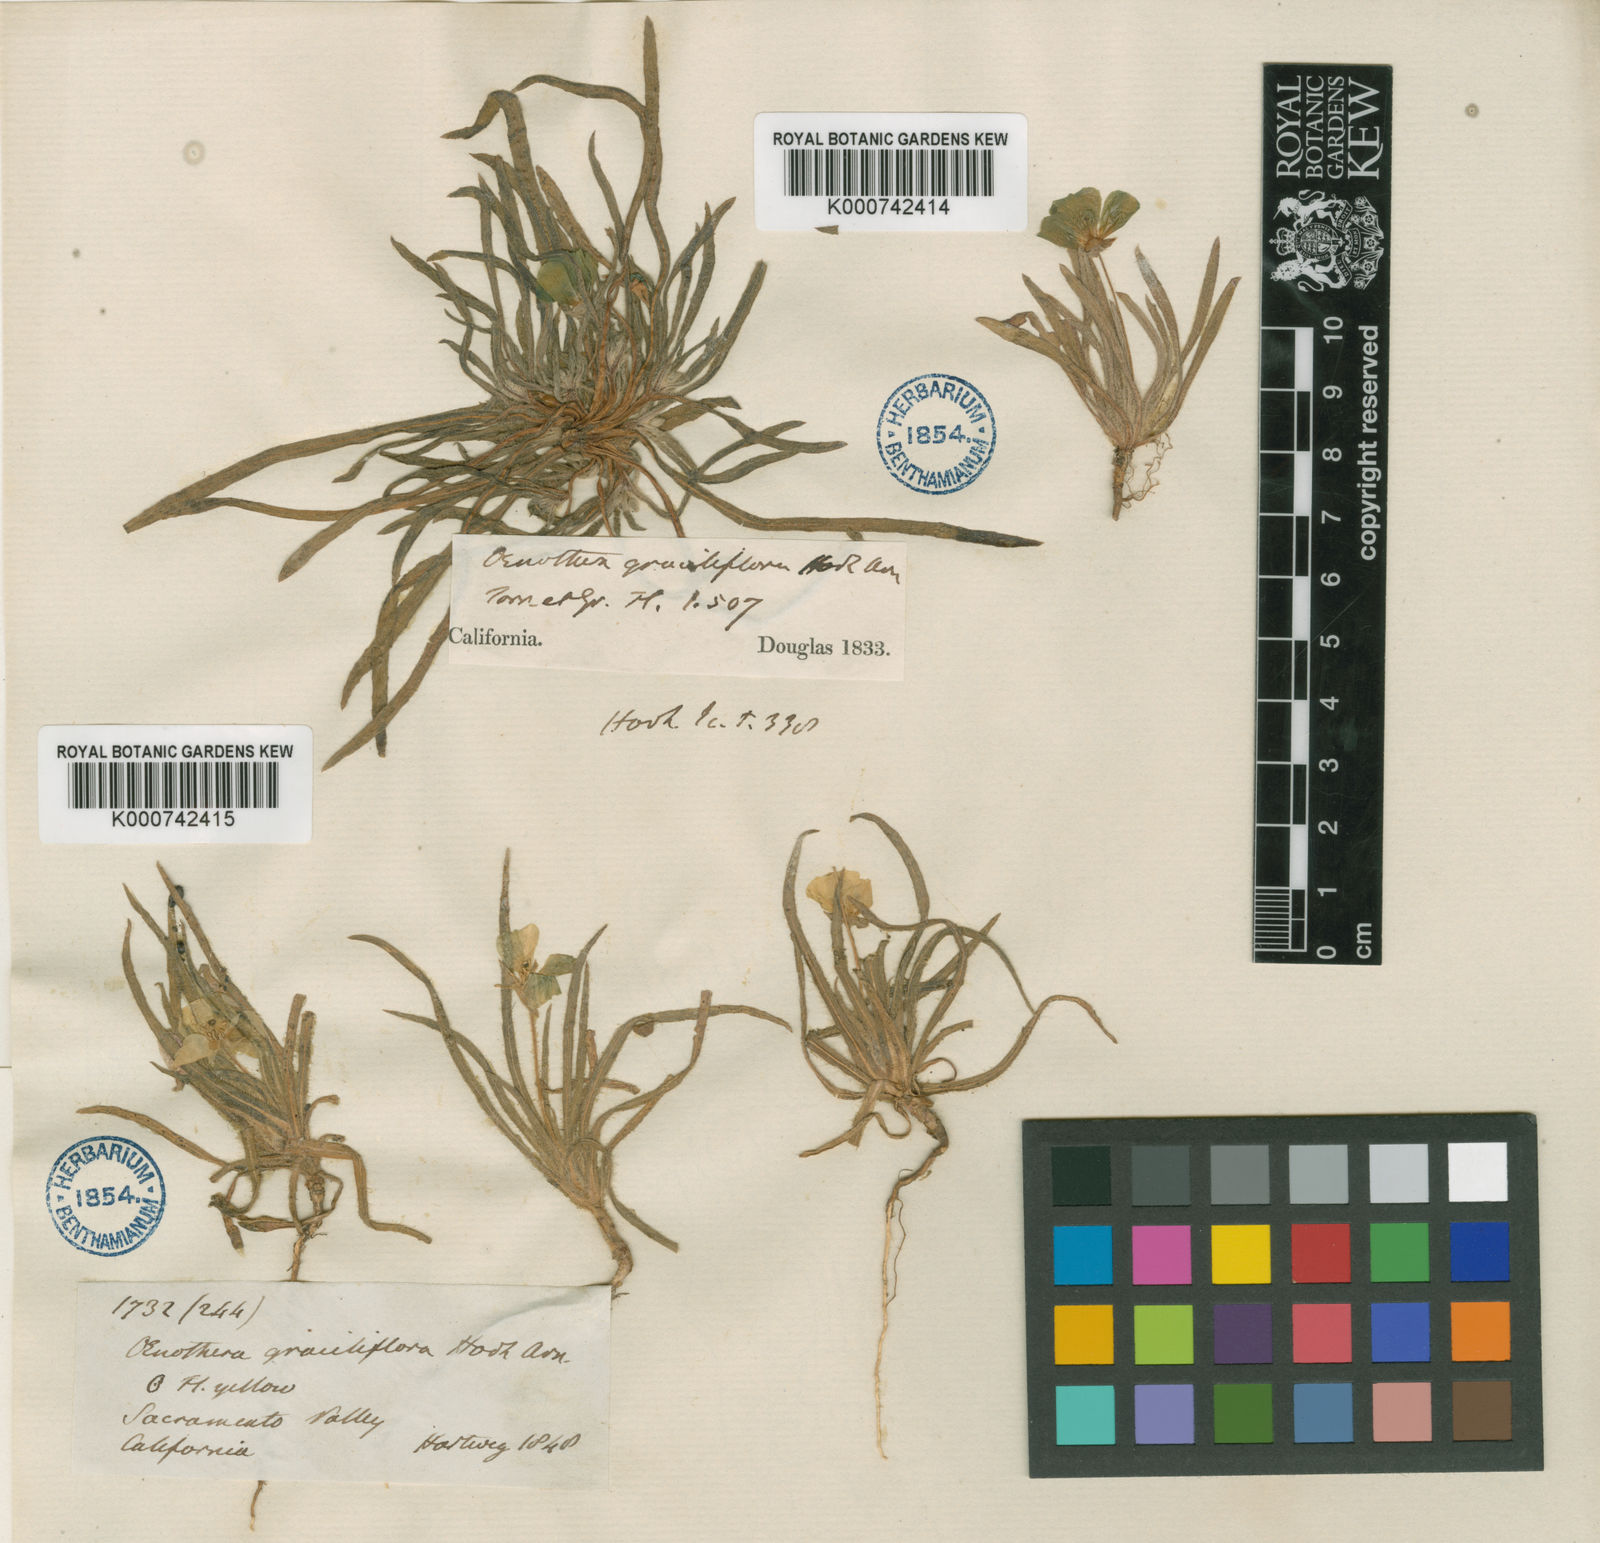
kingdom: Plantae
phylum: Tracheophyta
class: Magnoliopsida
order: Myrtales
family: Onagraceae
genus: Tetrapteron
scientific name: Tetrapteron graciliflorum
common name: Hill suncup
